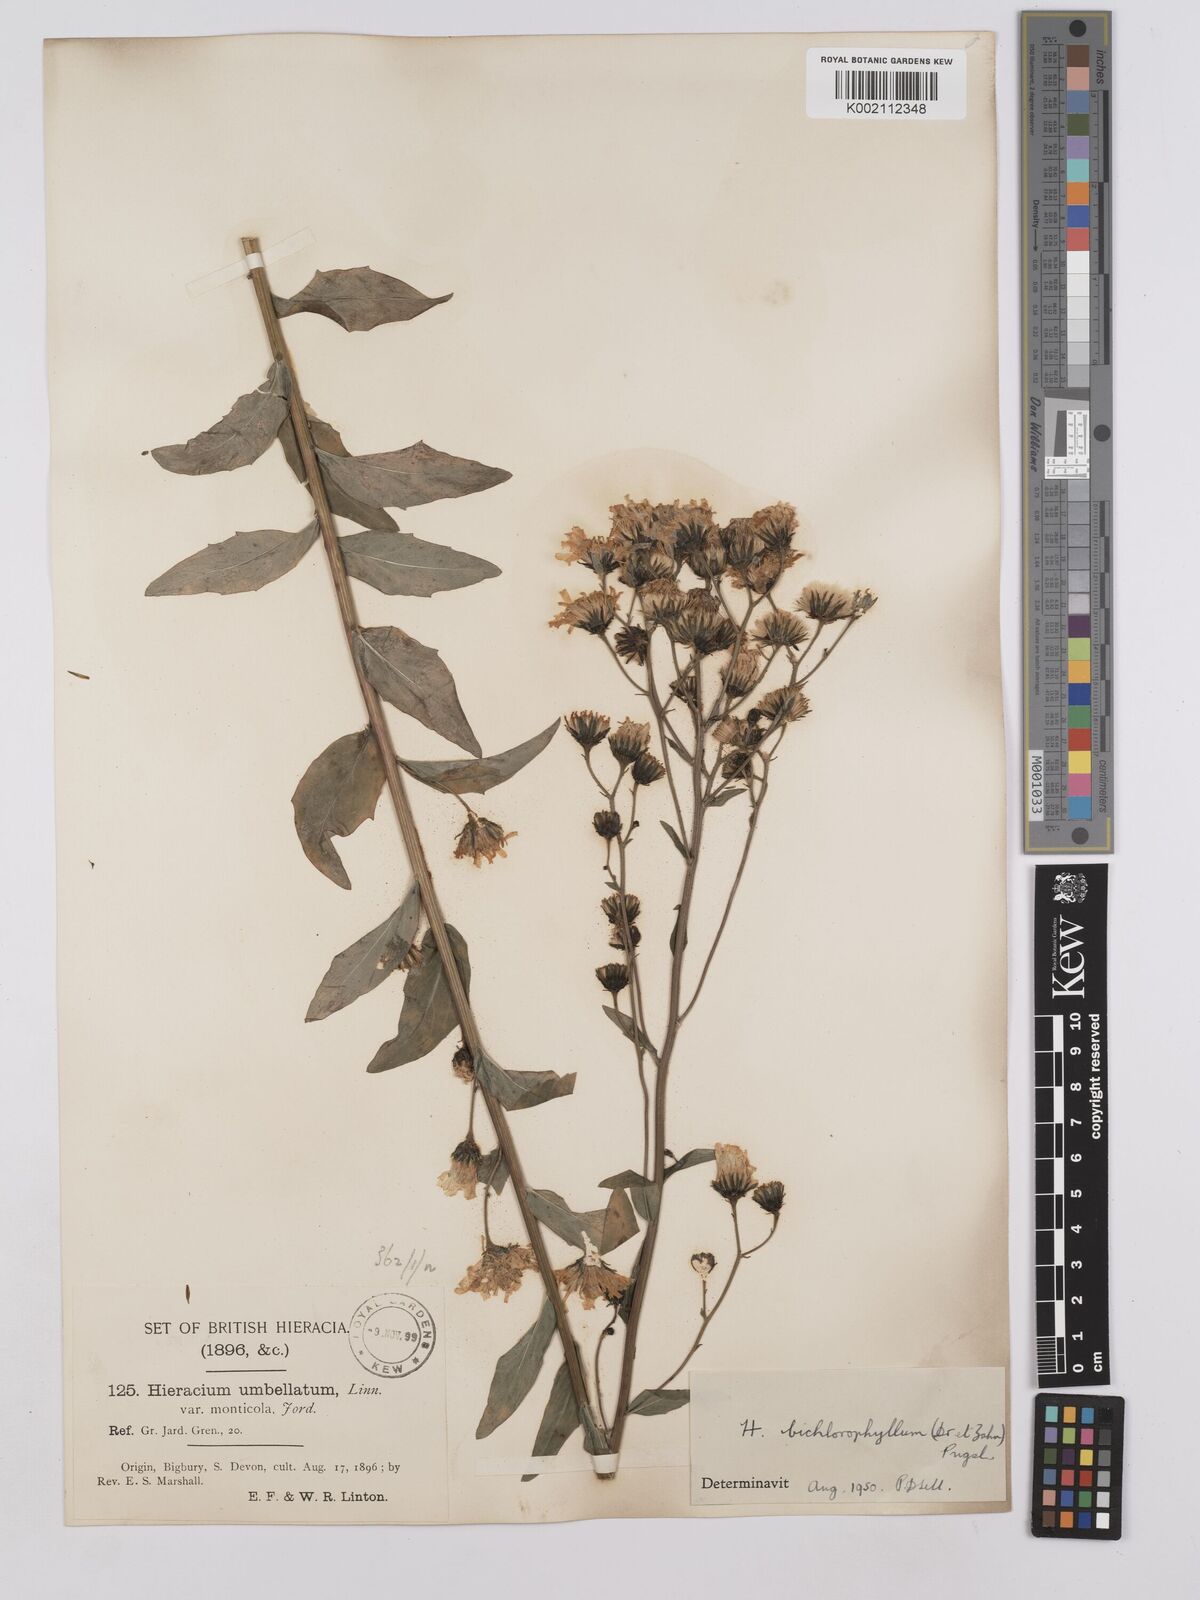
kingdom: Plantae
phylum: Tracheophyta
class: Magnoliopsida
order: Asterales
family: Asteraceae
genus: Hieracium
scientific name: Hieracium umbellatum
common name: Northern hawkweed
